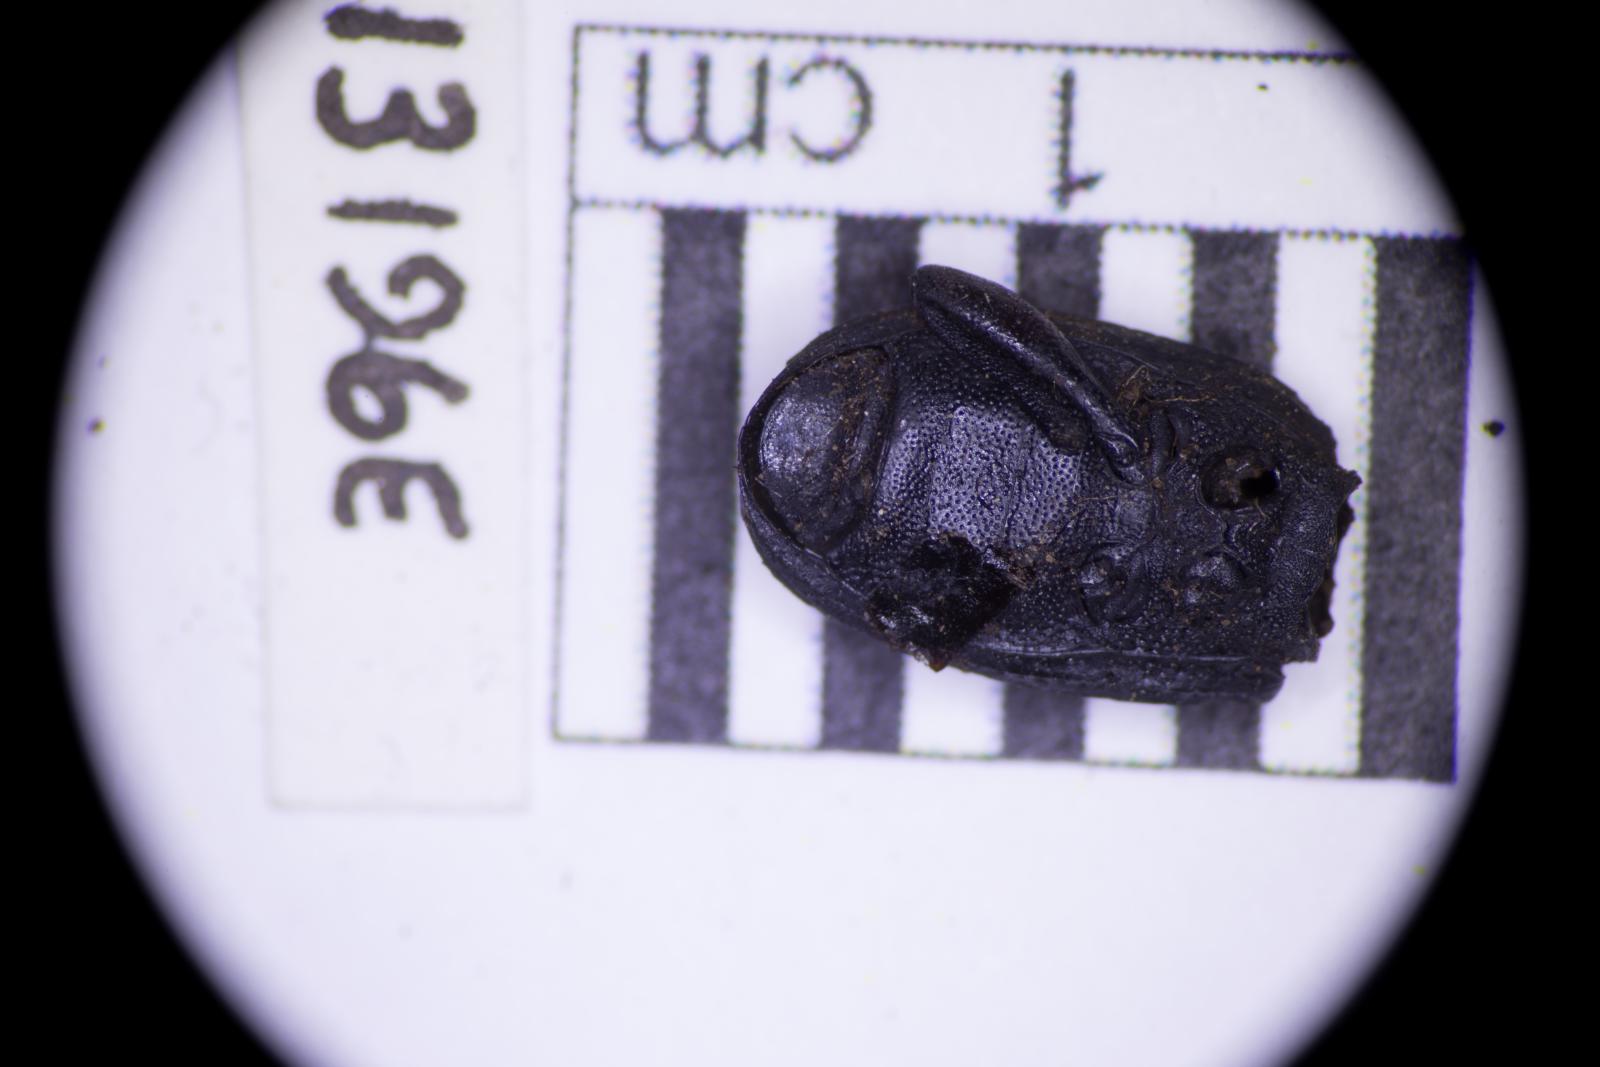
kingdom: Animalia
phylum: Arthropoda
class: Insecta
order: Coleoptera
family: Tenebrionidae
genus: Apsena
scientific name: Apsena laticornis
